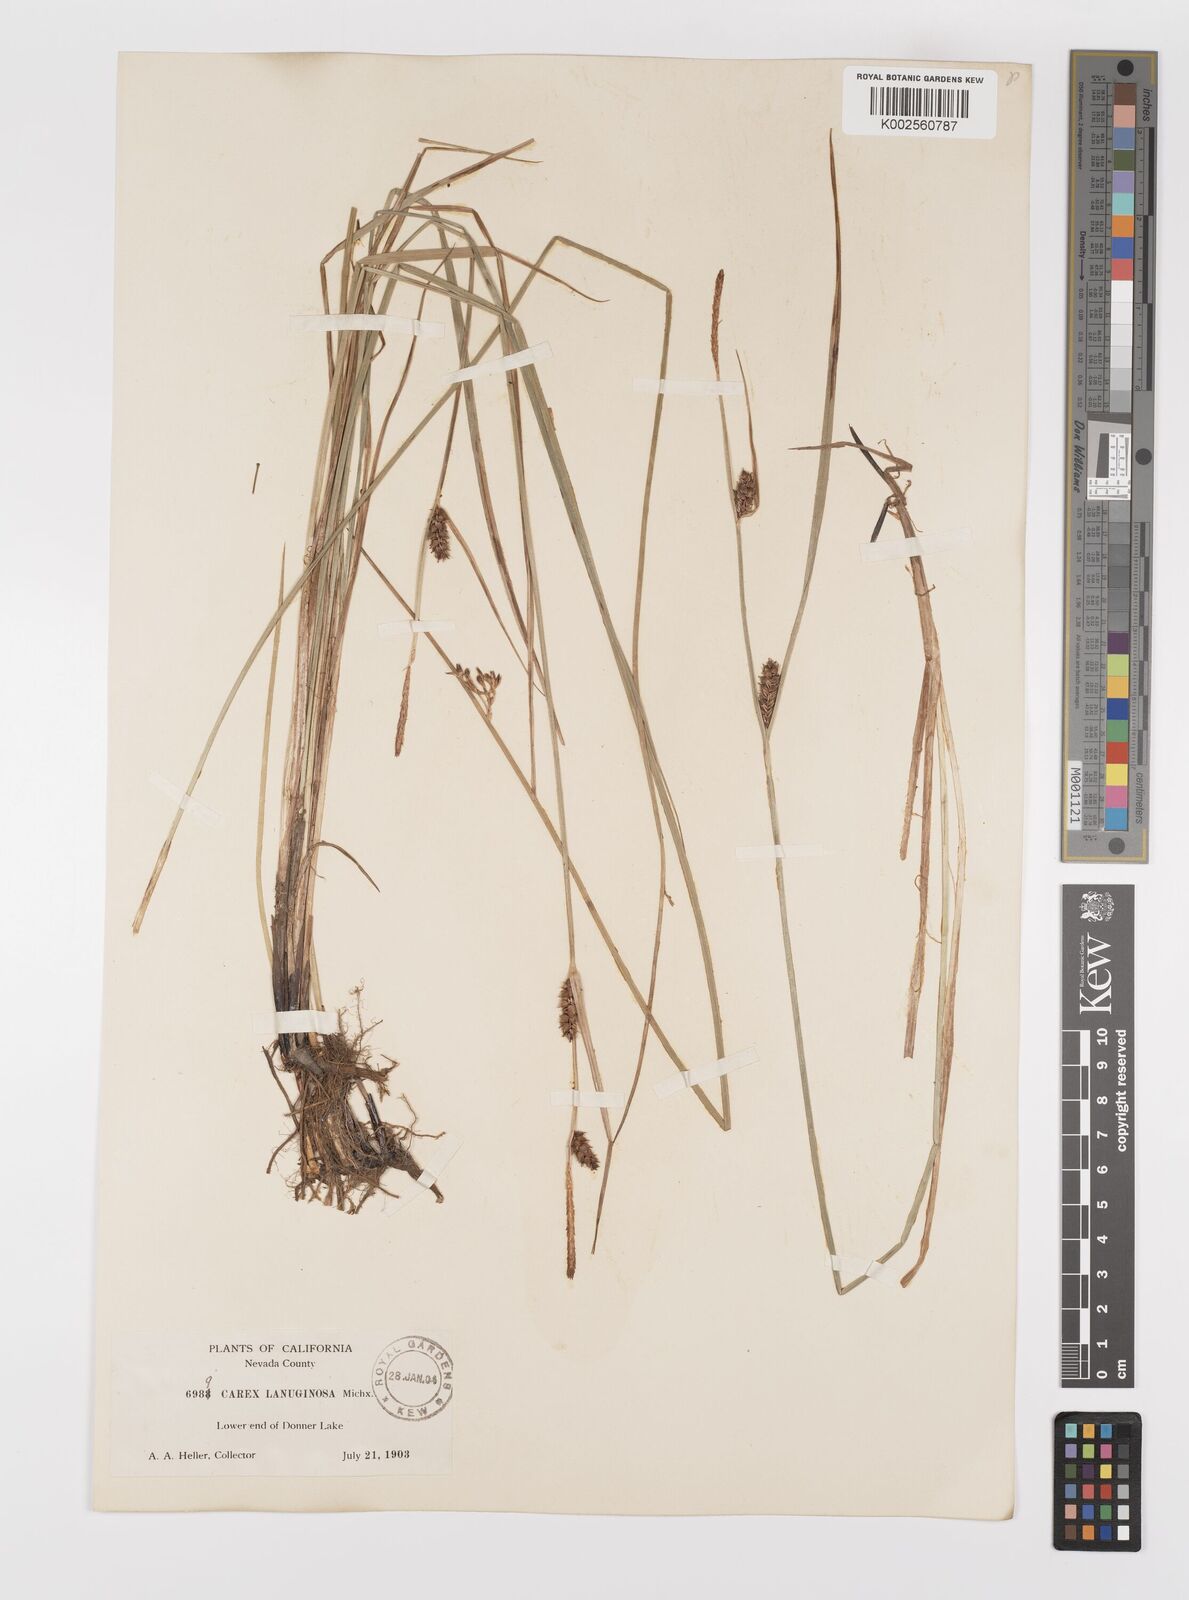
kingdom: Plantae
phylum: Tracheophyta
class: Liliopsida
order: Poales
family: Cyperaceae
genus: Carex
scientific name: Carex lasiocarpa
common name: Slender sedge
